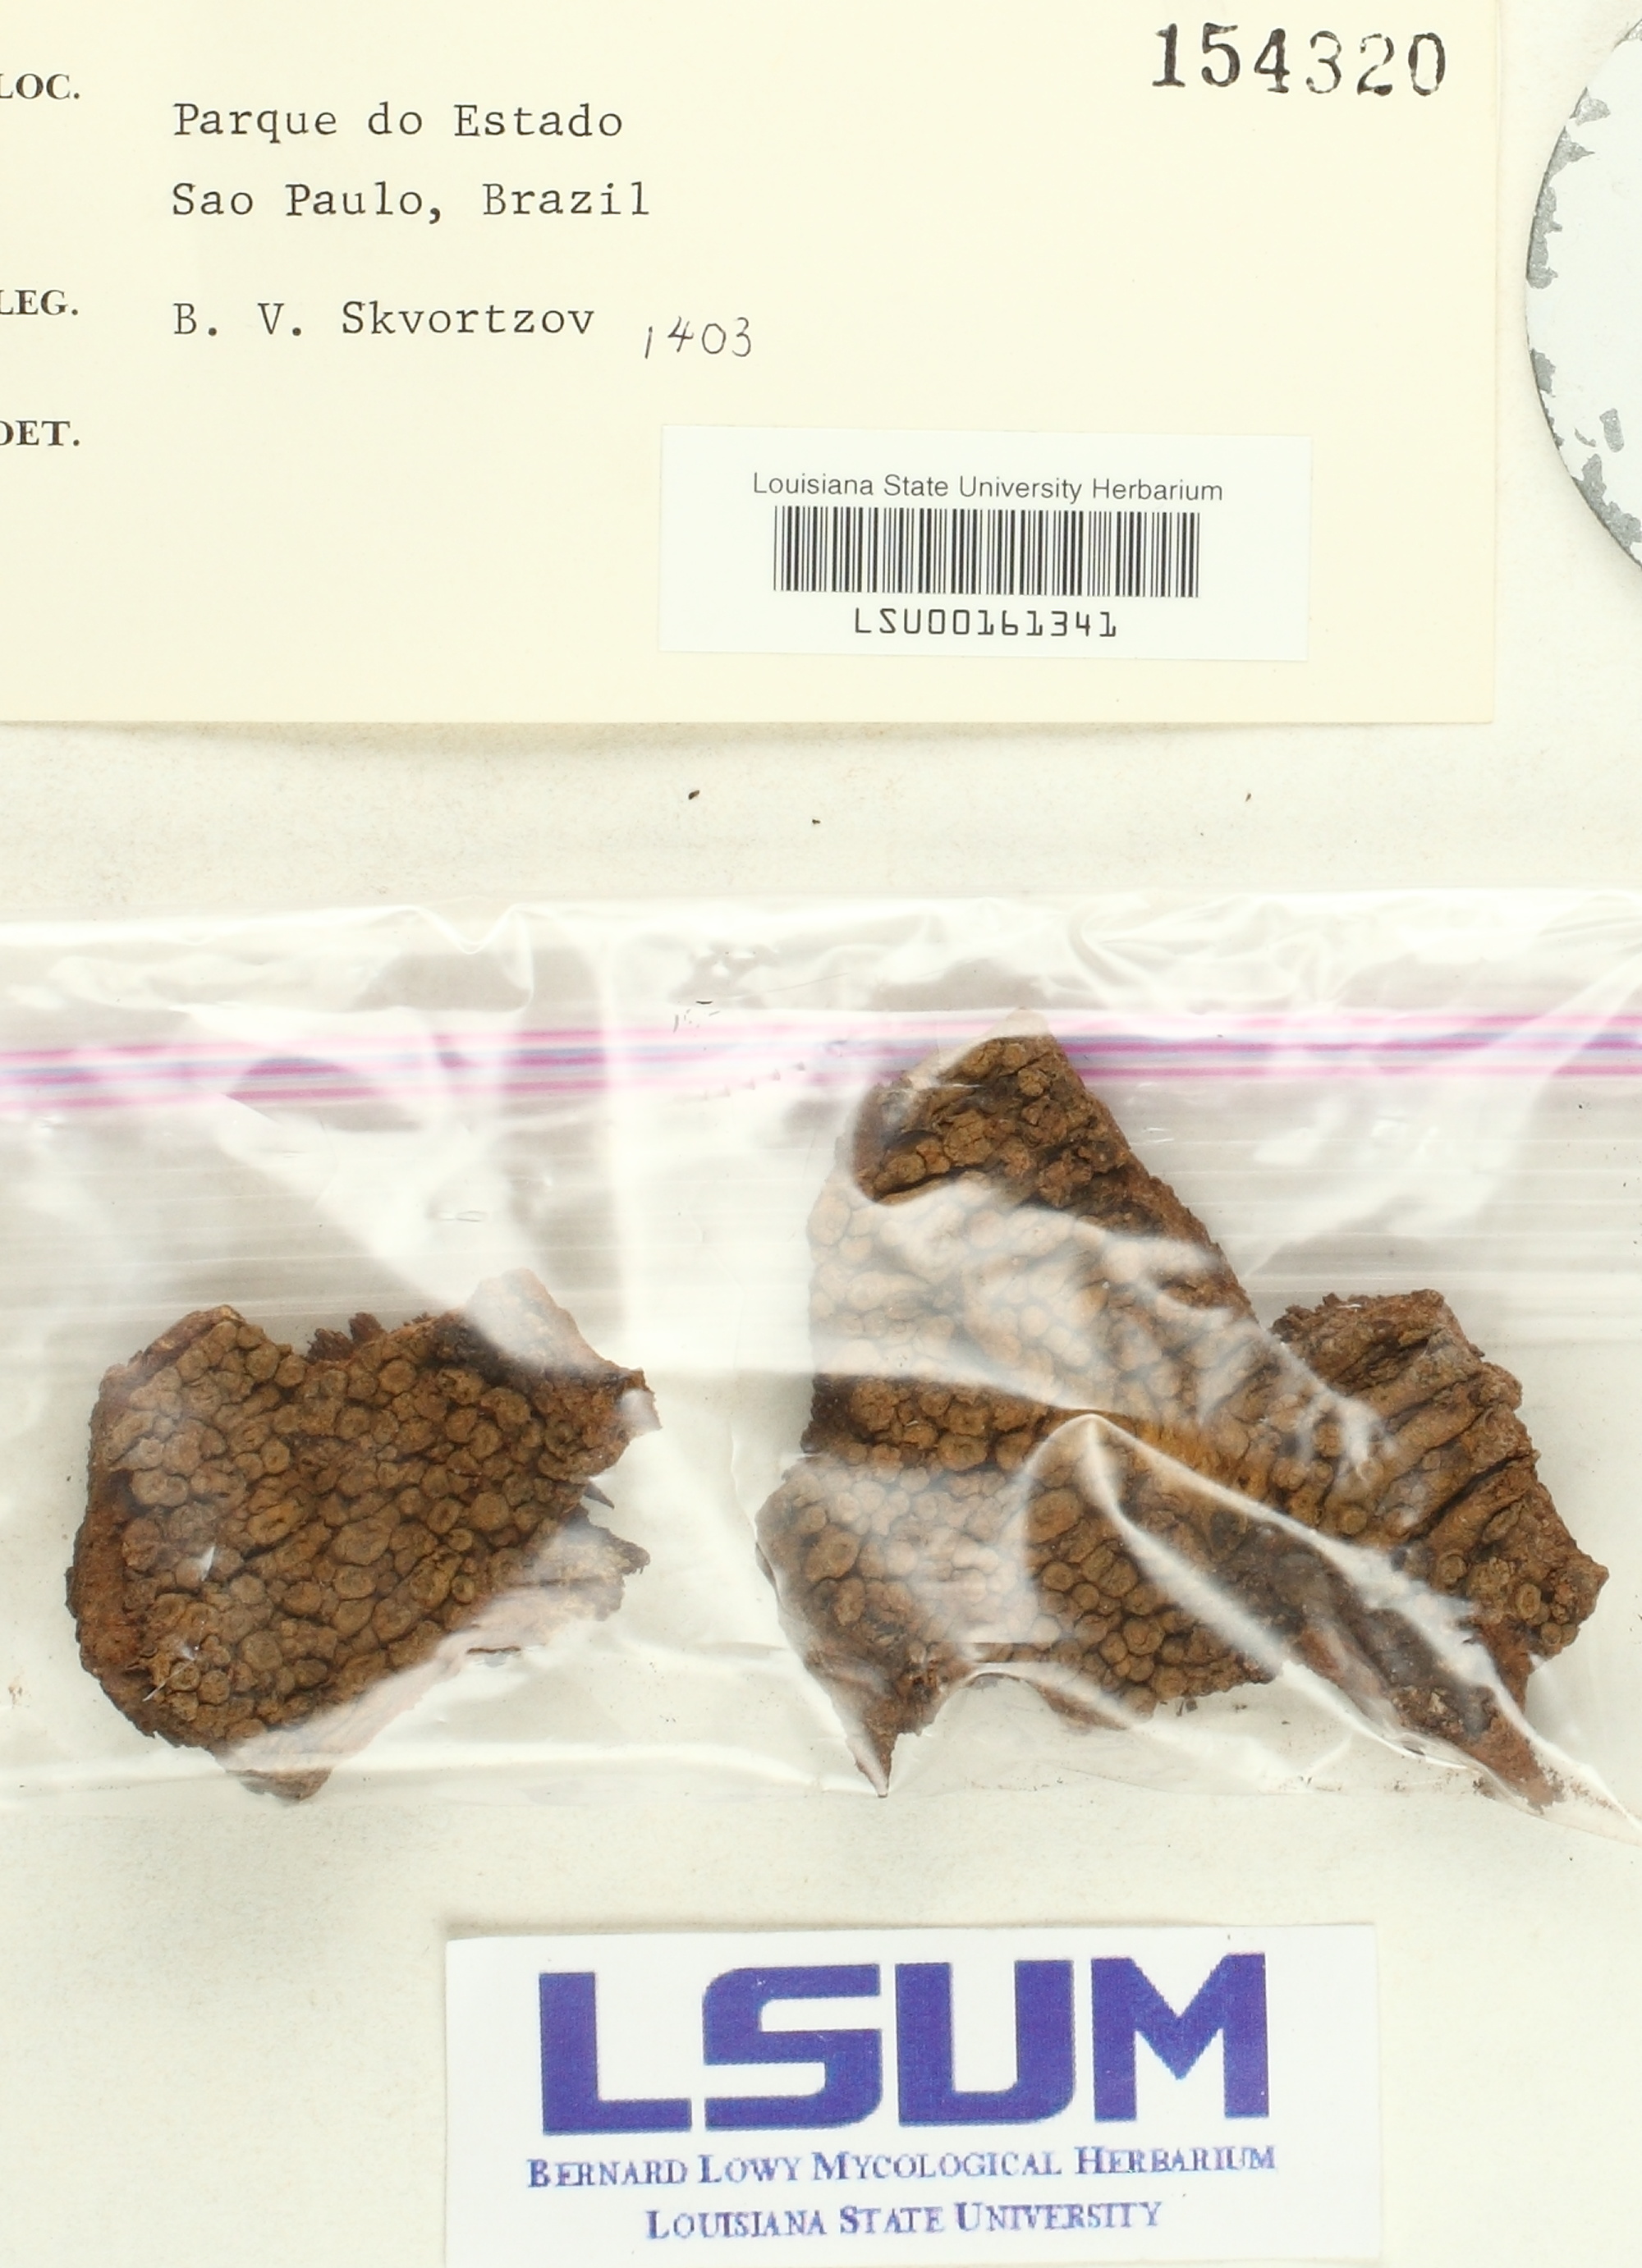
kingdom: Fungi
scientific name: Fungi
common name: Fungi
